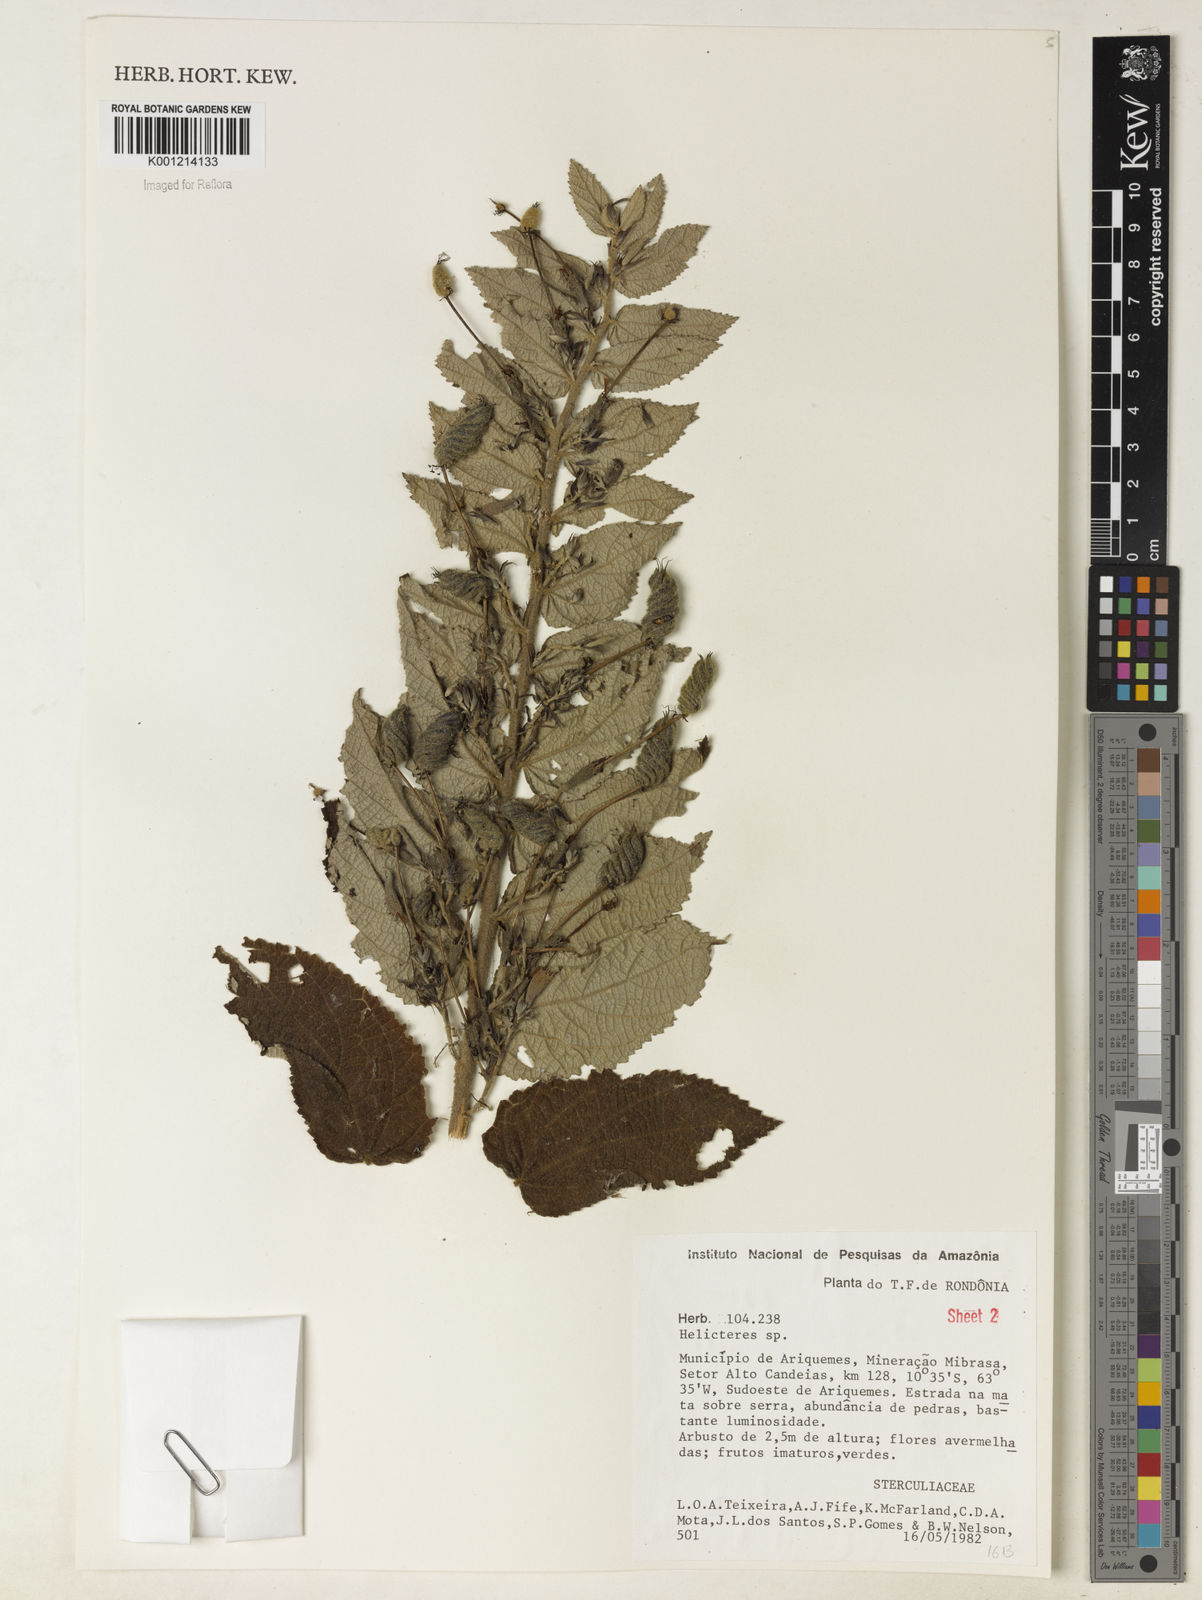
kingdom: Plantae
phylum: Tracheophyta
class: Magnoliopsida
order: Malvales
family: Malvaceae
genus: Helicteres
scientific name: Helicteres pentandra
